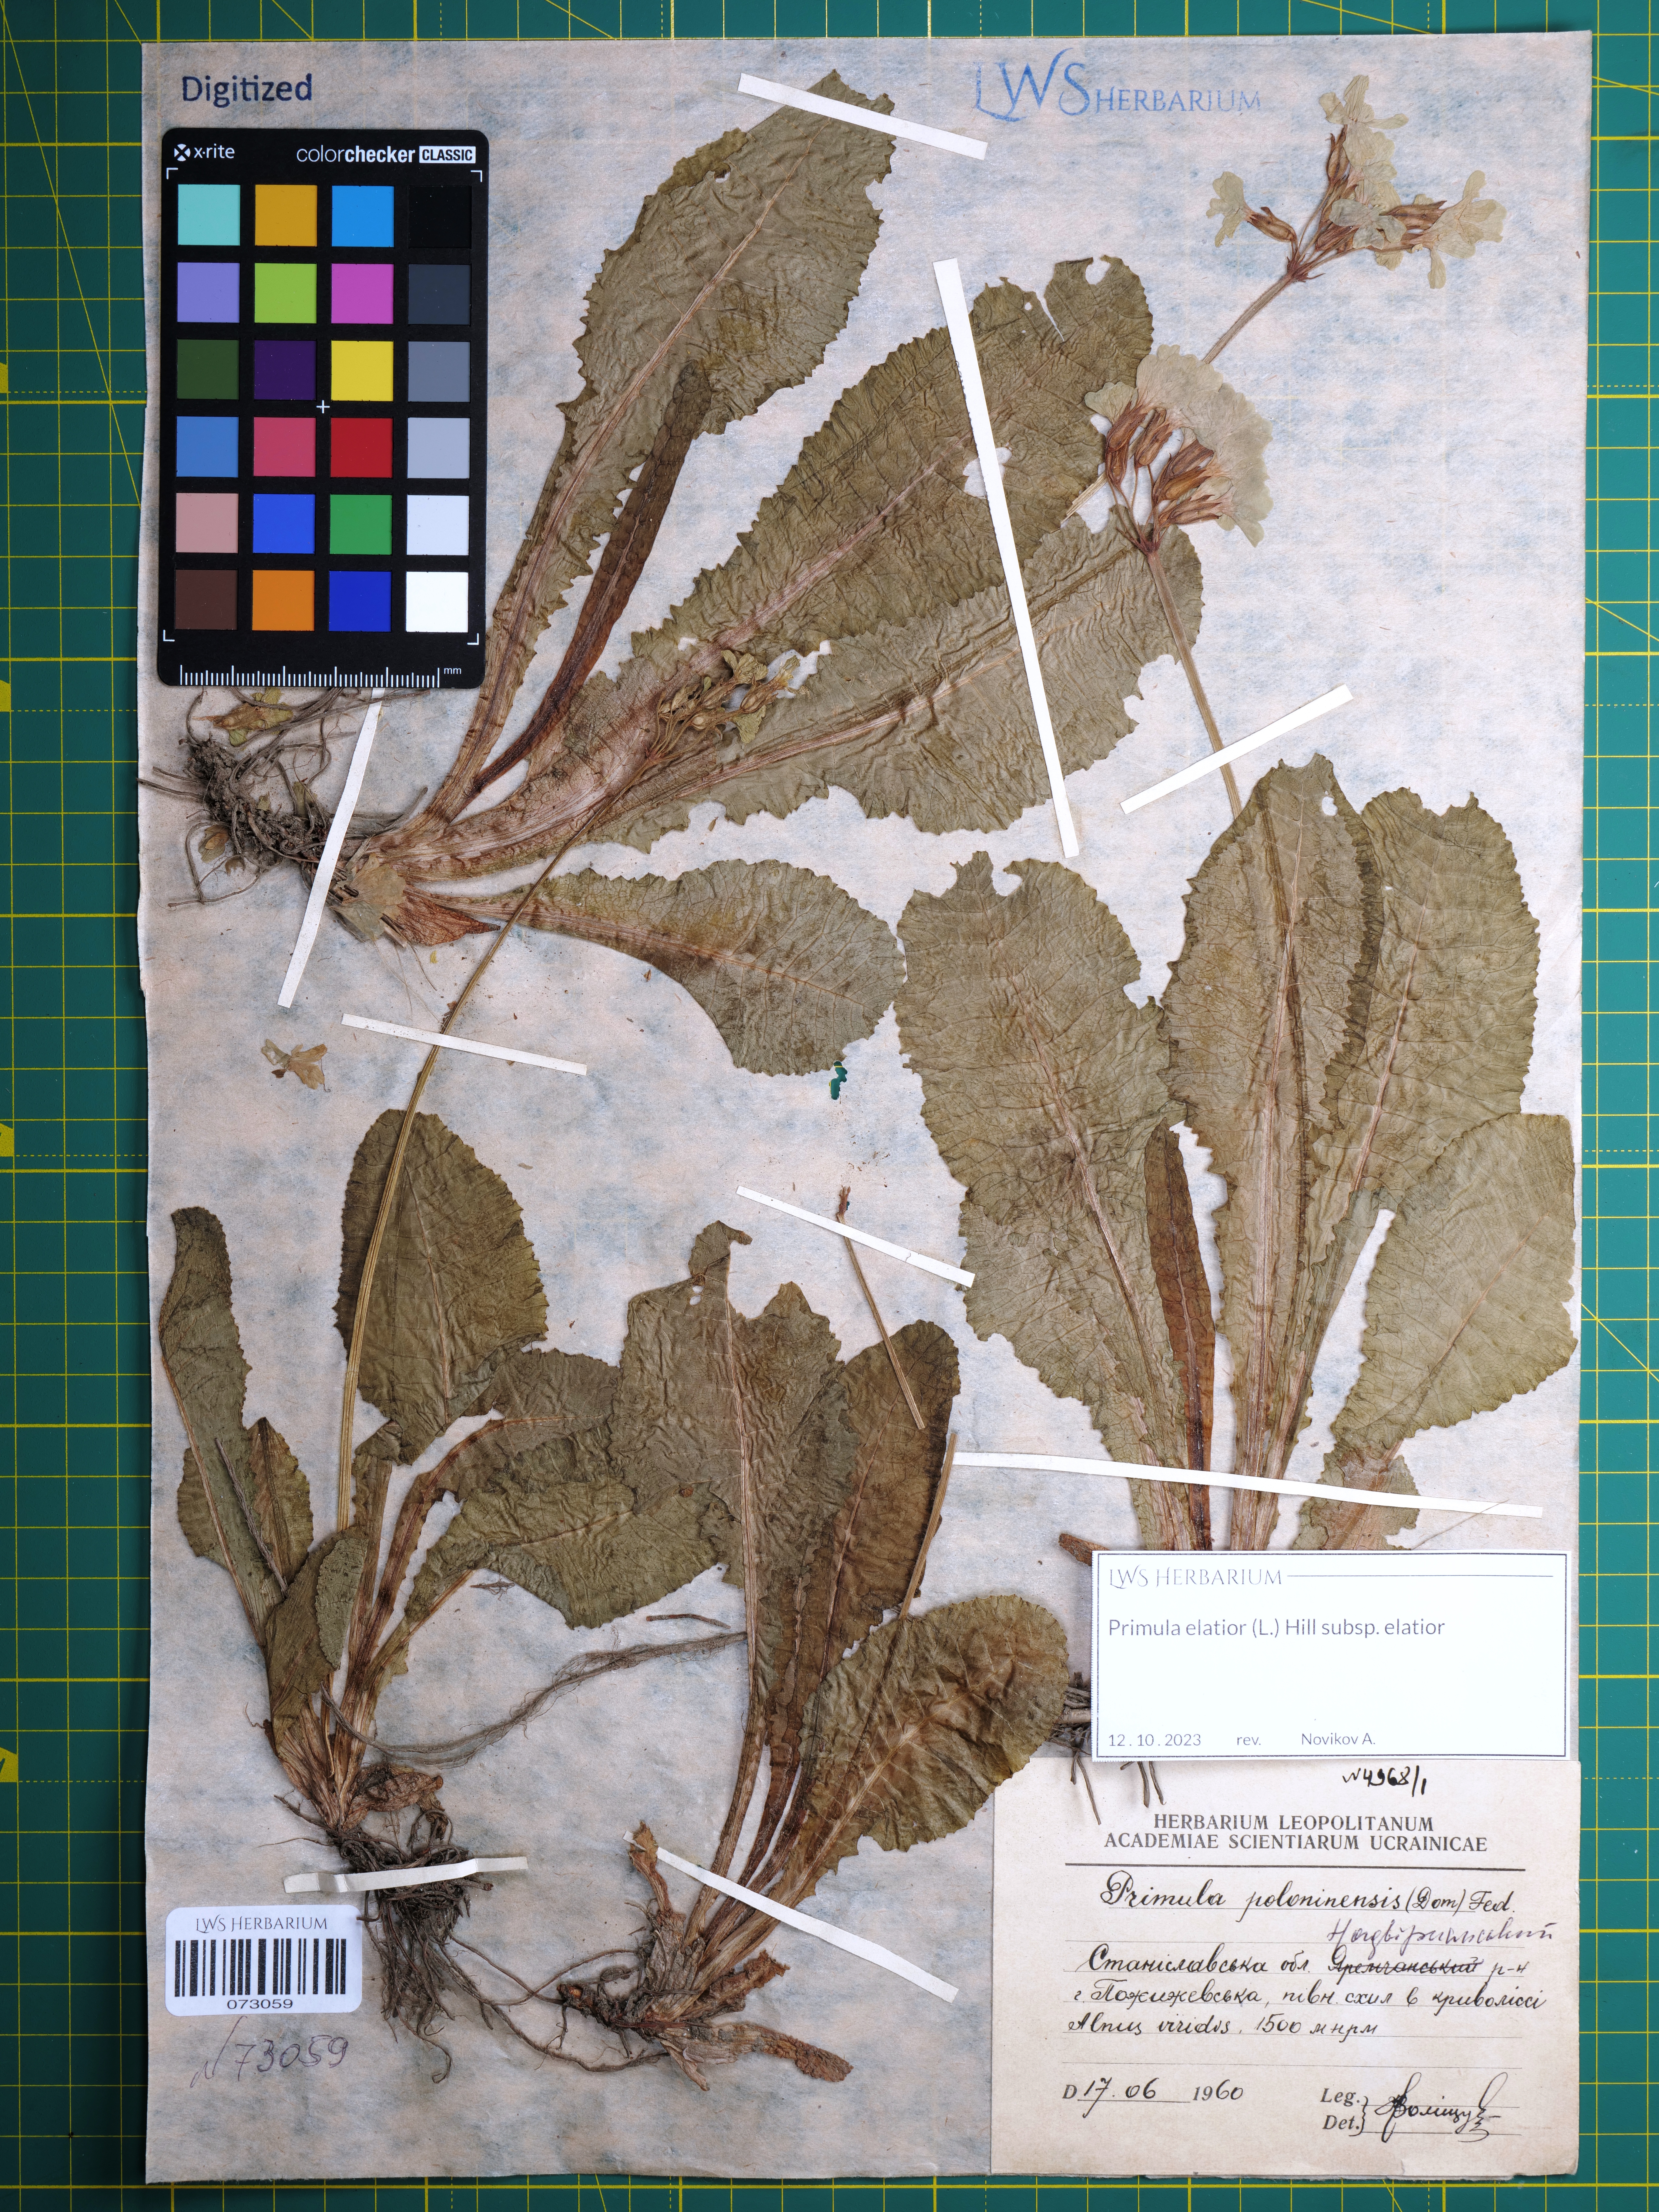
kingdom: Plantae
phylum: Tracheophyta
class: Magnoliopsida
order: Ericales
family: Primulaceae
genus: Primula
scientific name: Primula elatior
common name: Oxlip
